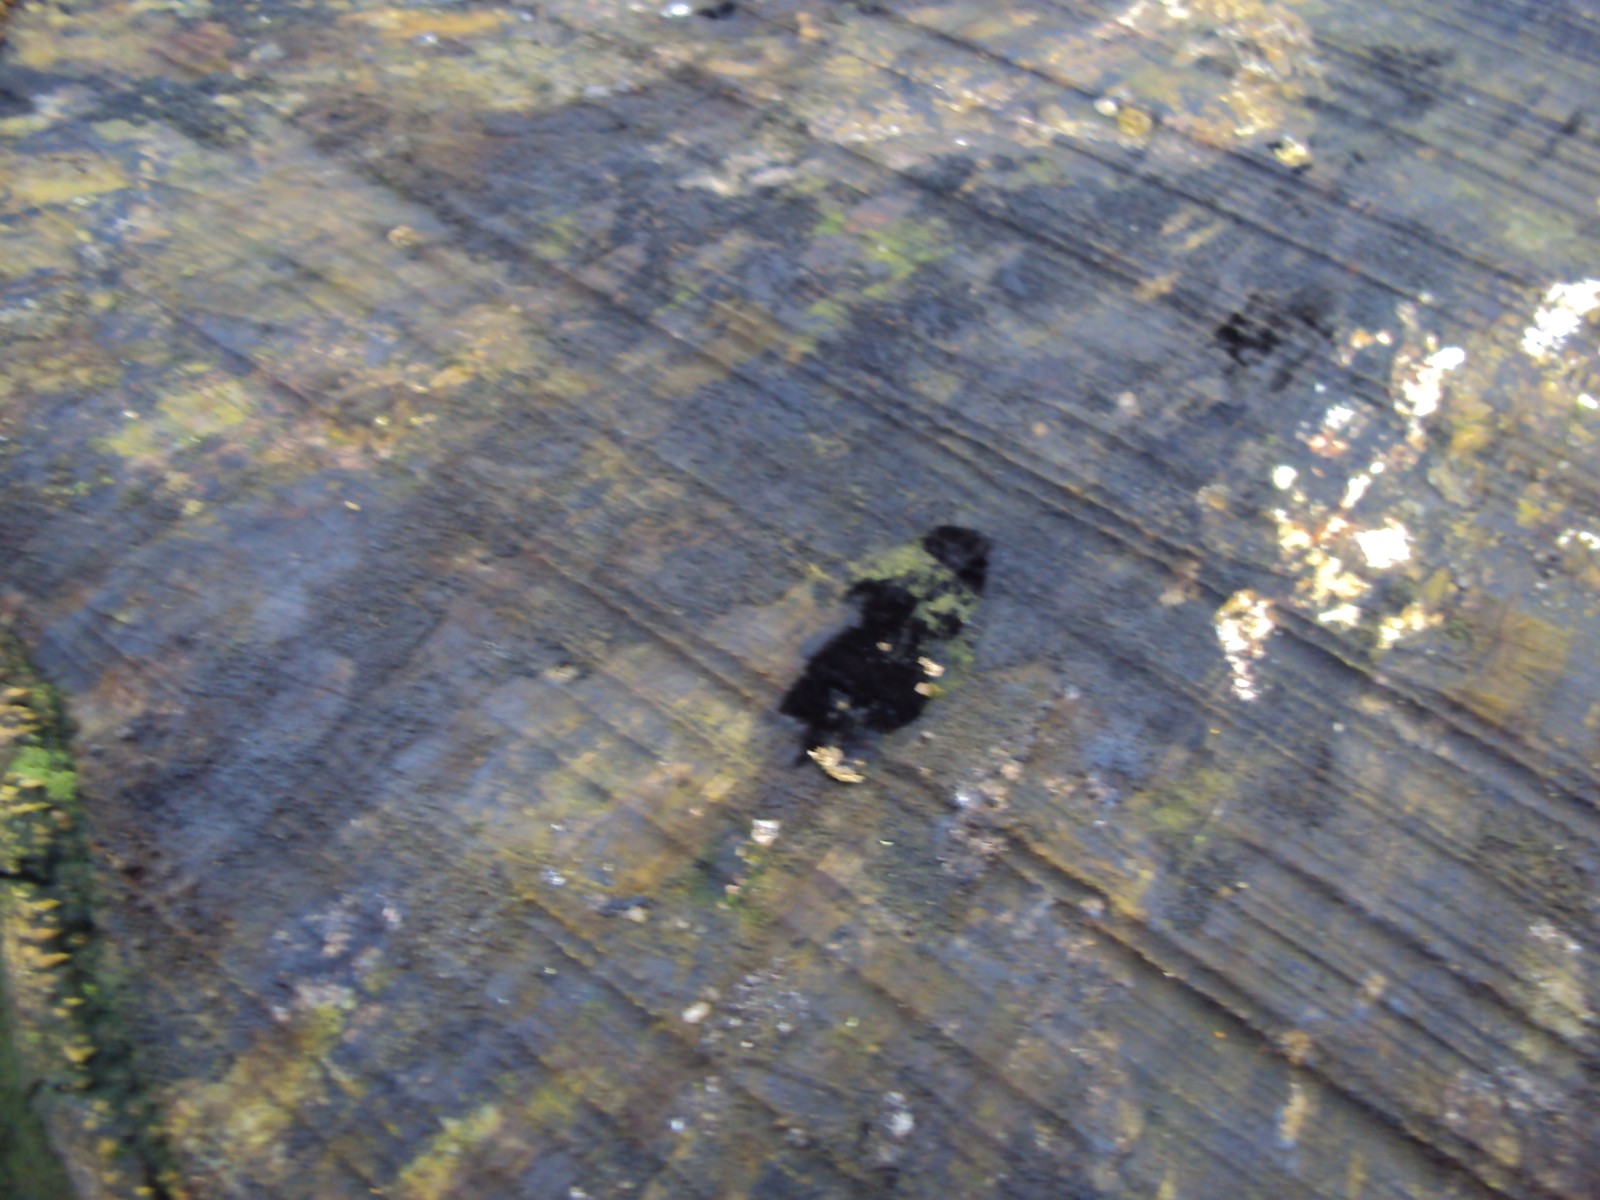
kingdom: Fungi
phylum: Ascomycota
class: Leotiomycetes
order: Helotiales
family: Helotiaceae
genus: Bispora
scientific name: Bispora pallescens
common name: måtte-snitskive
